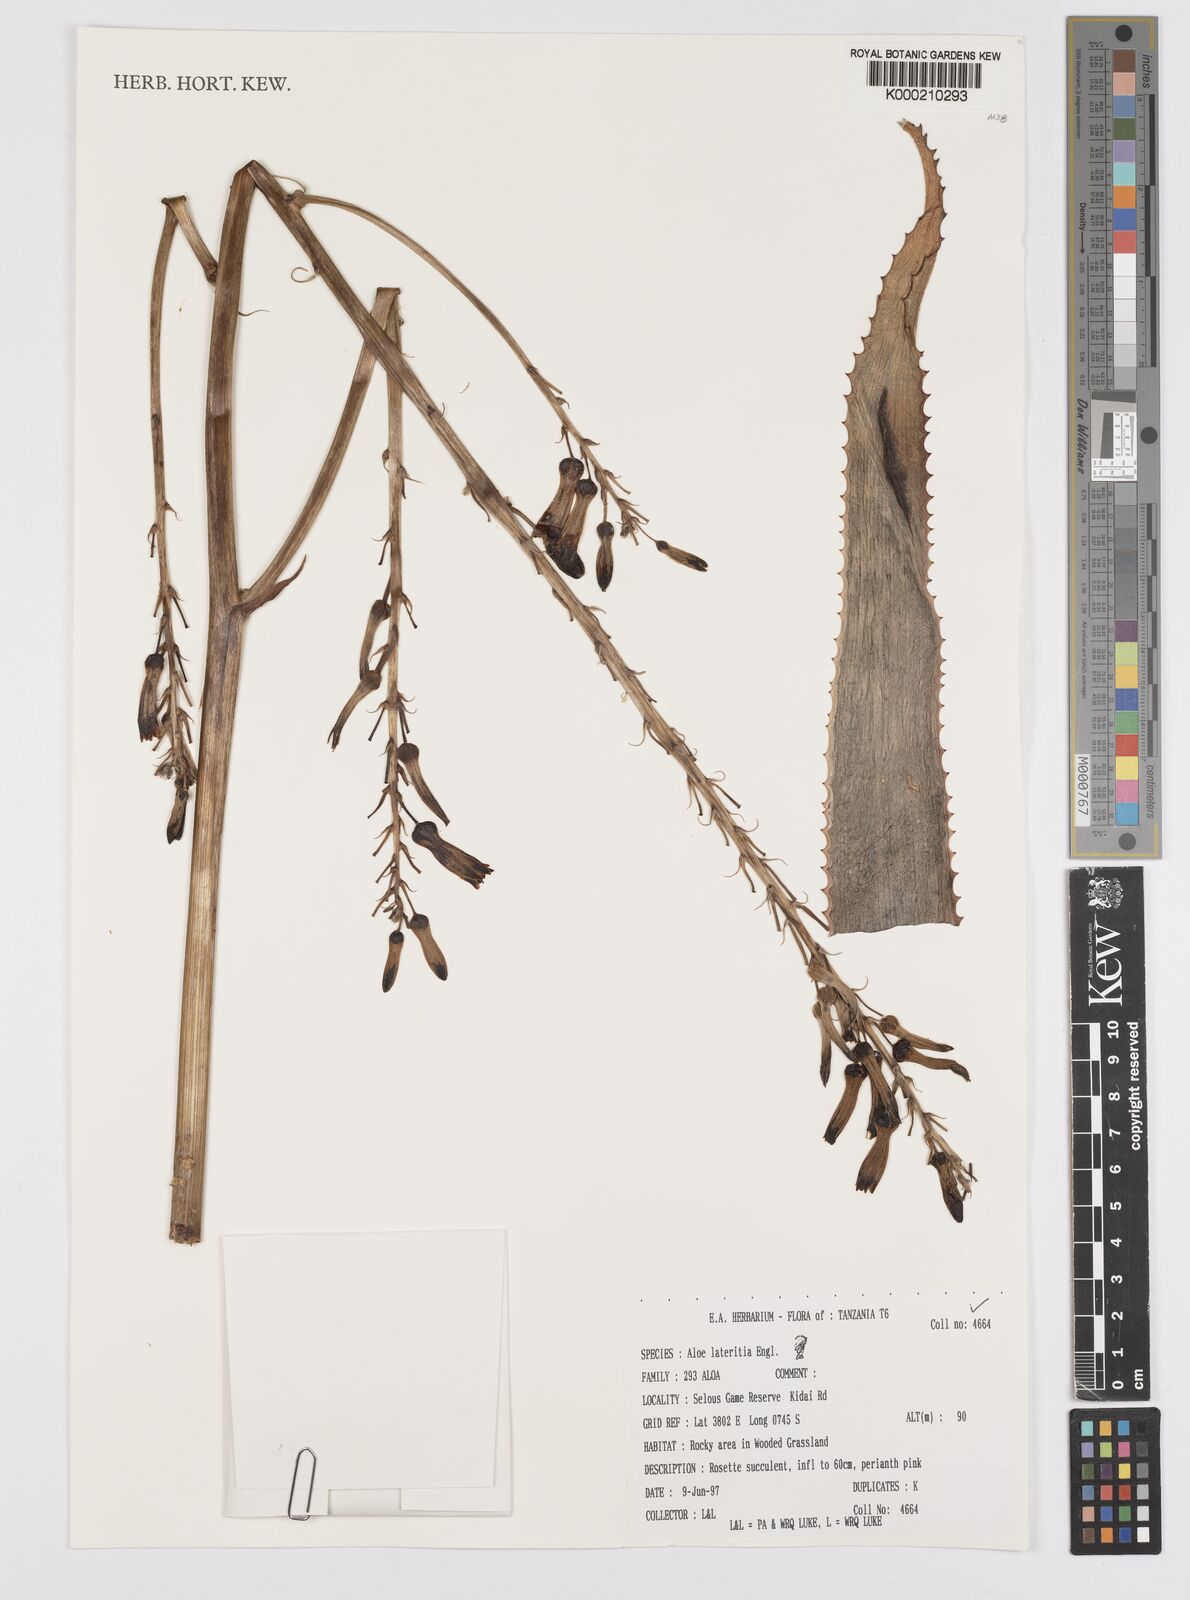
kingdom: Plantae
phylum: Tracheophyta
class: Liliopsida
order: Asparagales
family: Asphodelaceae
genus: Aloe
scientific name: Aloe lateritia
